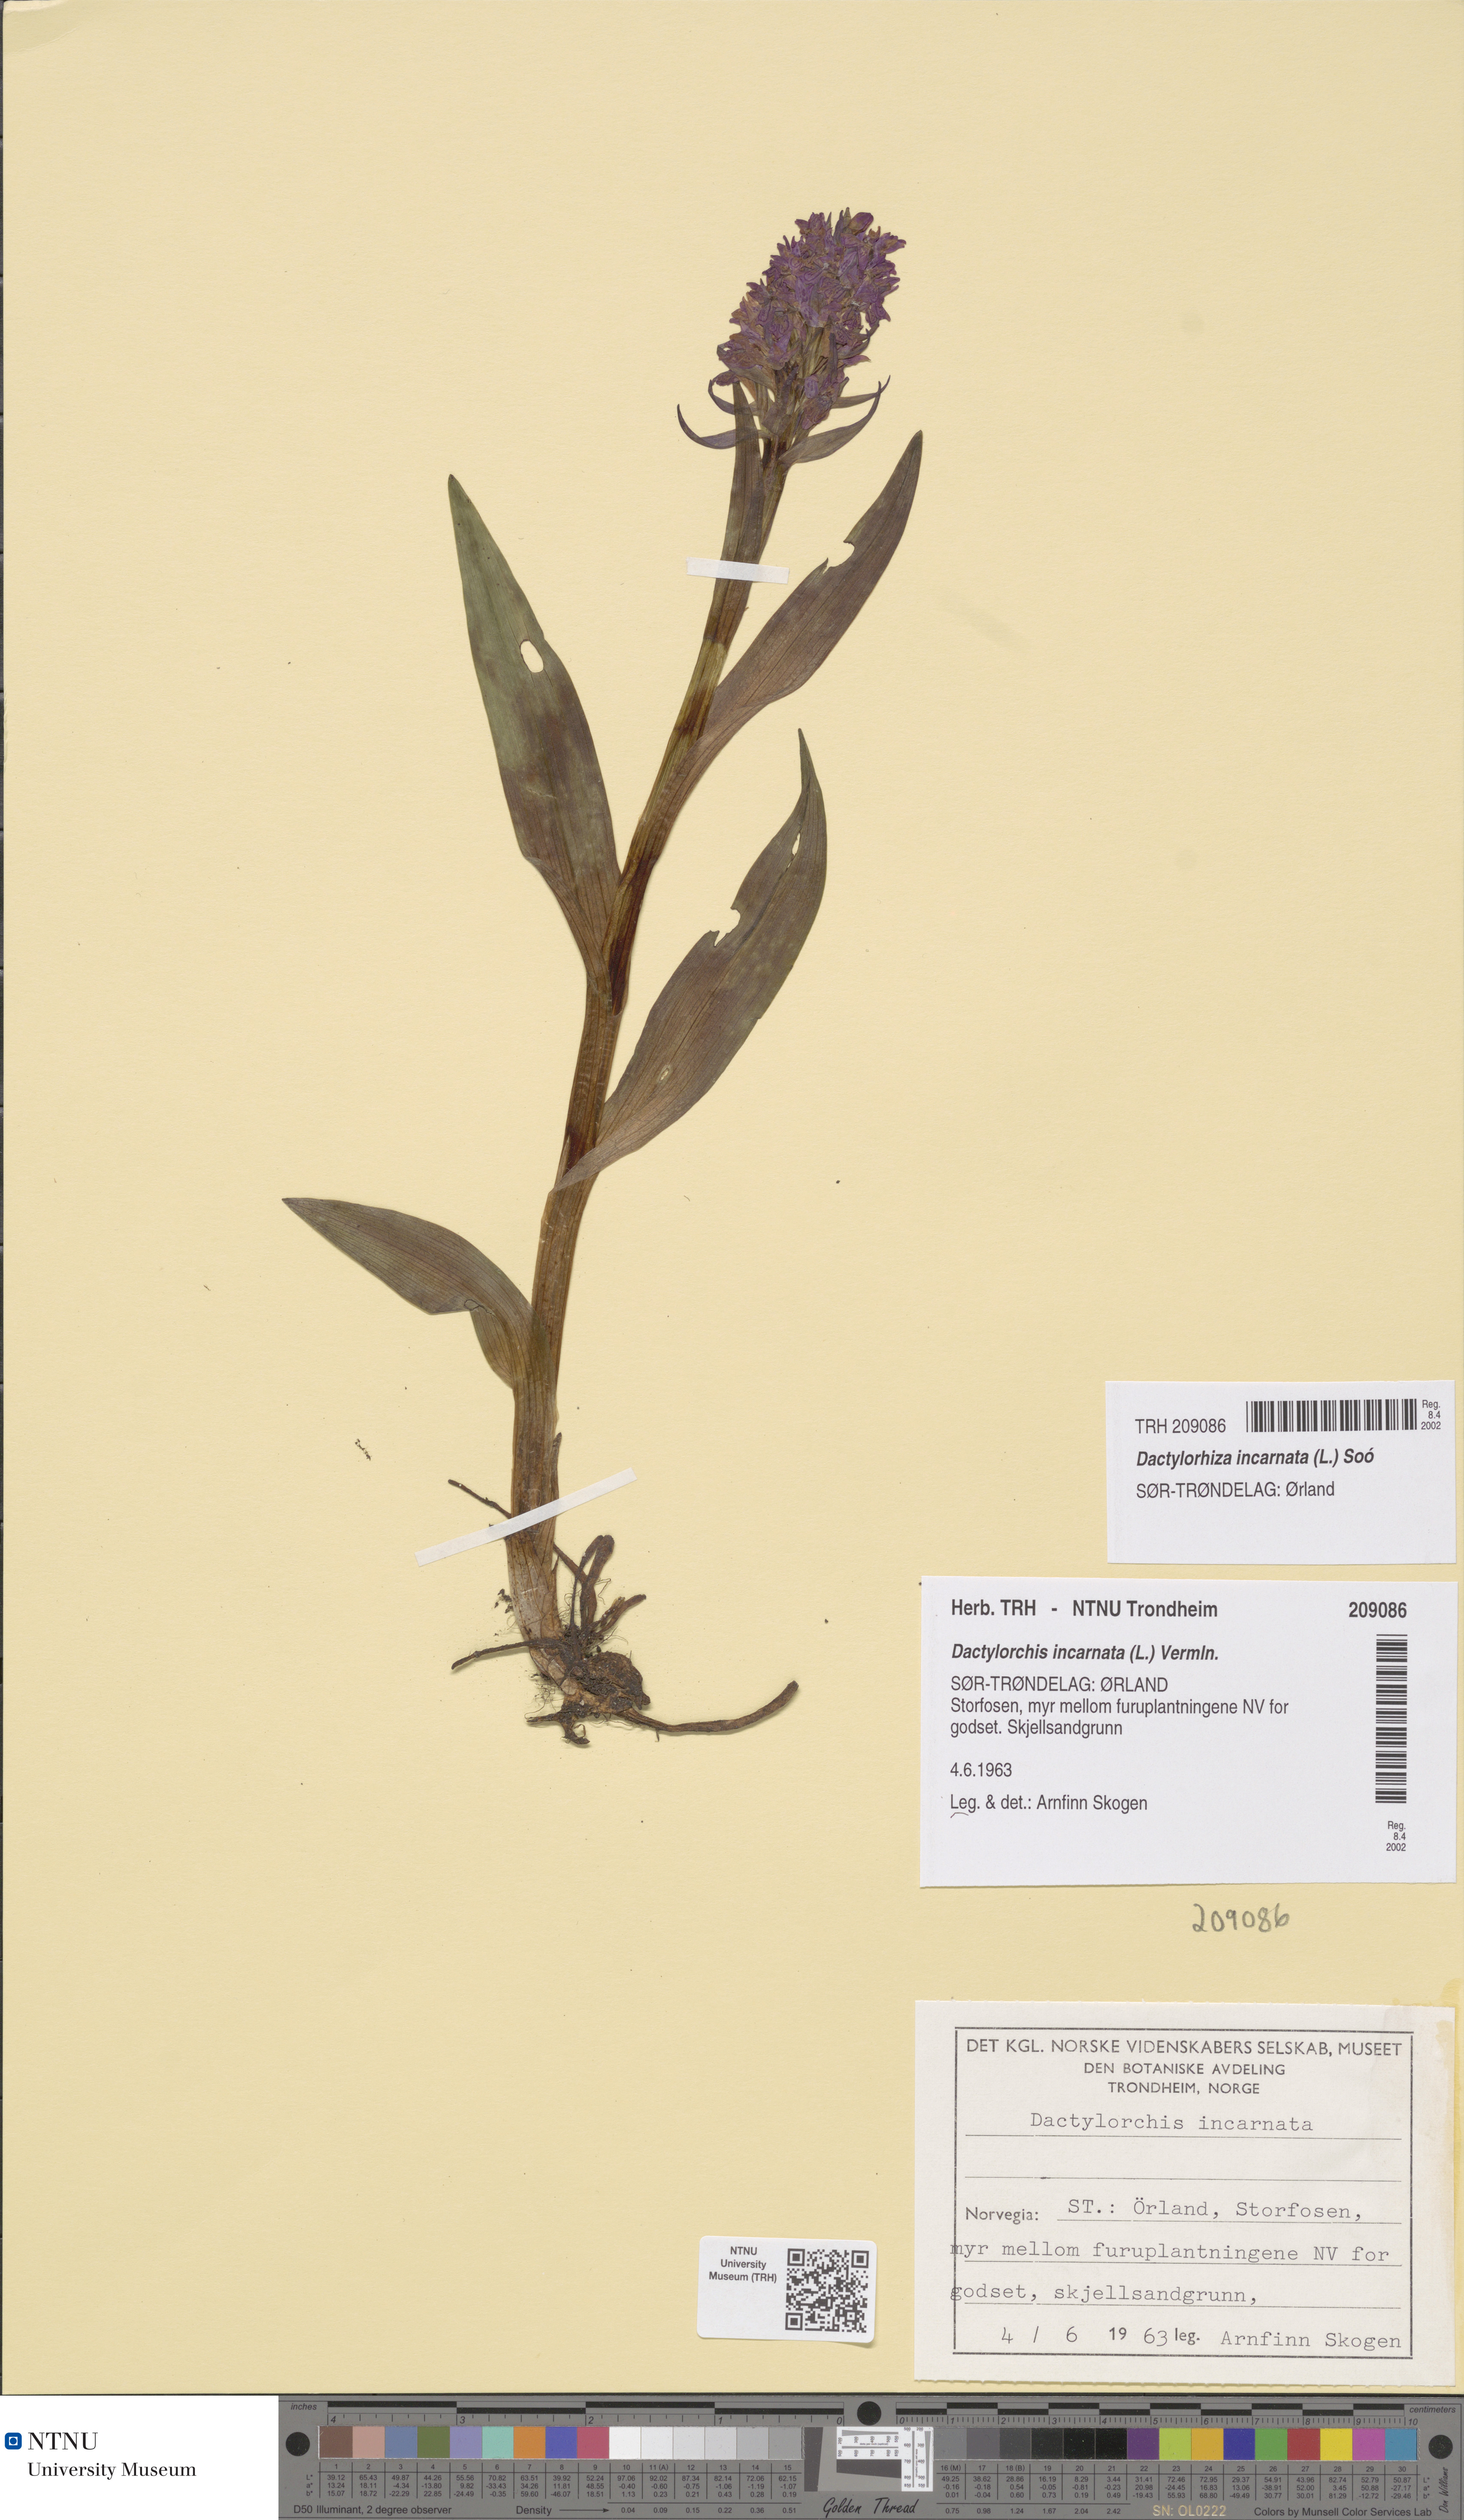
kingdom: Plantae
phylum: Tracheophyta
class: Liliopsida
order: Asparagales
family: Orchidaceae
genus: Dactylorhiza
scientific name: Dactylorhiza incarnata
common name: Early marsh-orchid
